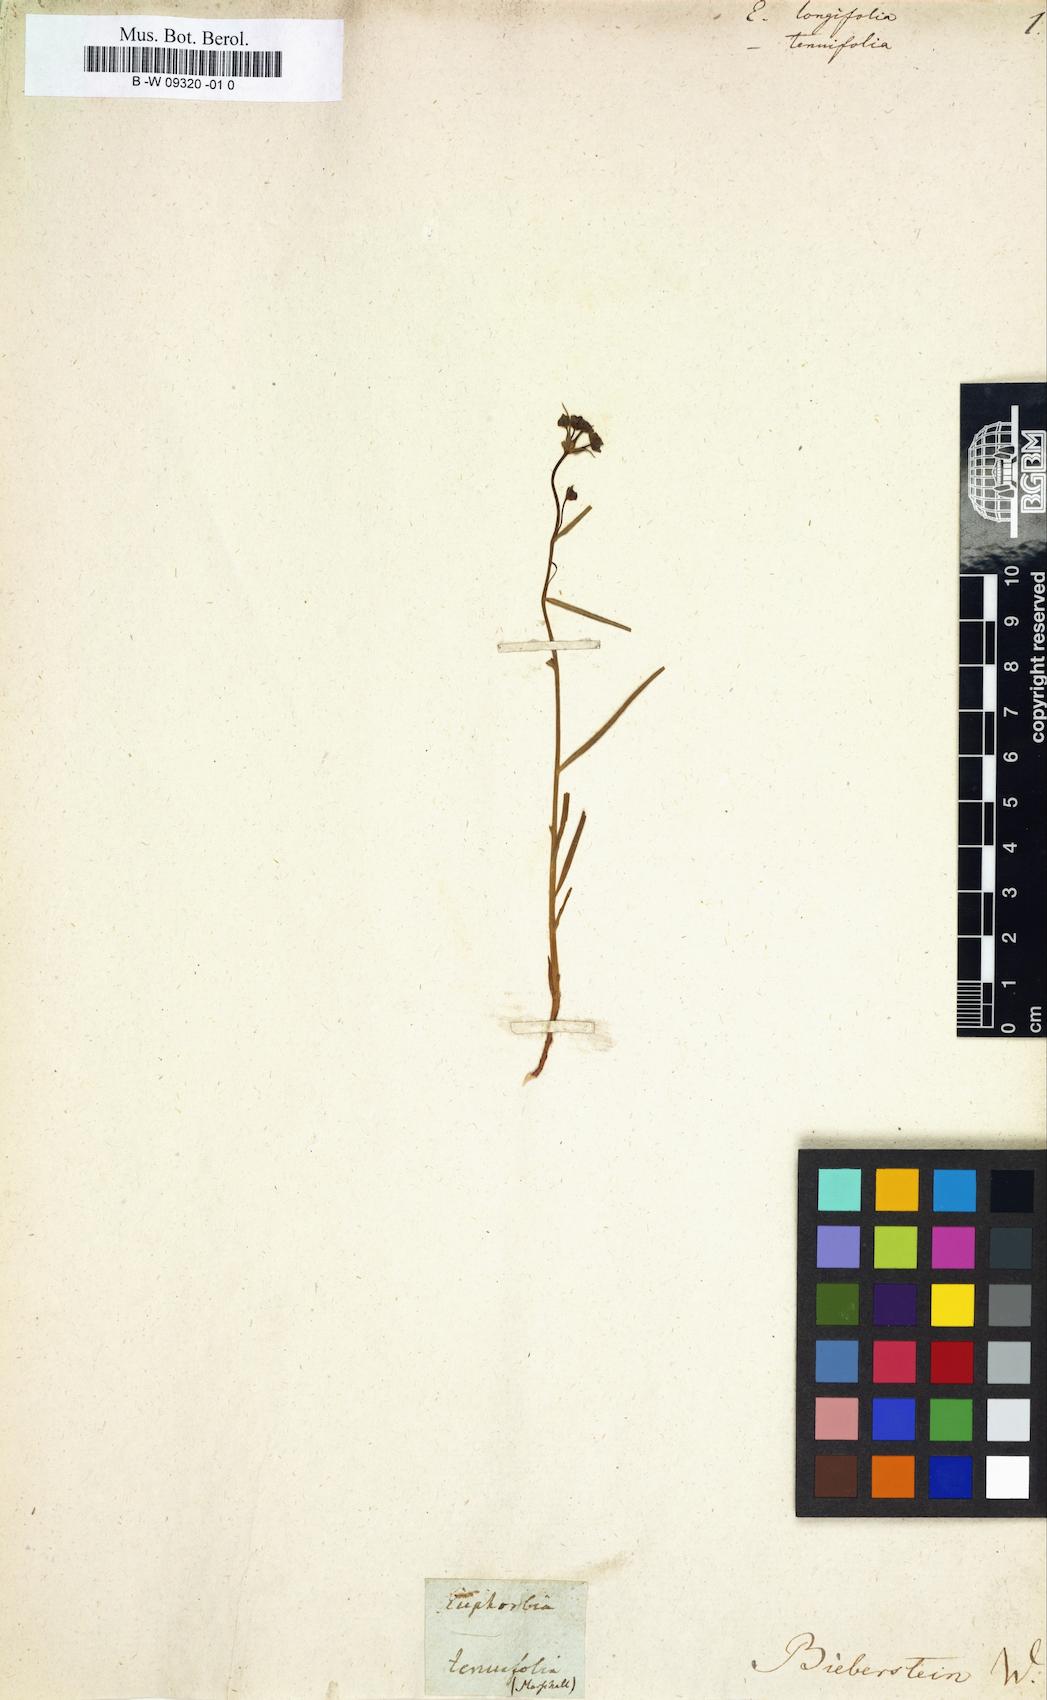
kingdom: Plantae
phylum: Tracheophyta
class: Magnoliopsida
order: Malpighiales
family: Euphorbiaceae
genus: Euphorbia
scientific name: Euphorbia leptocaula
